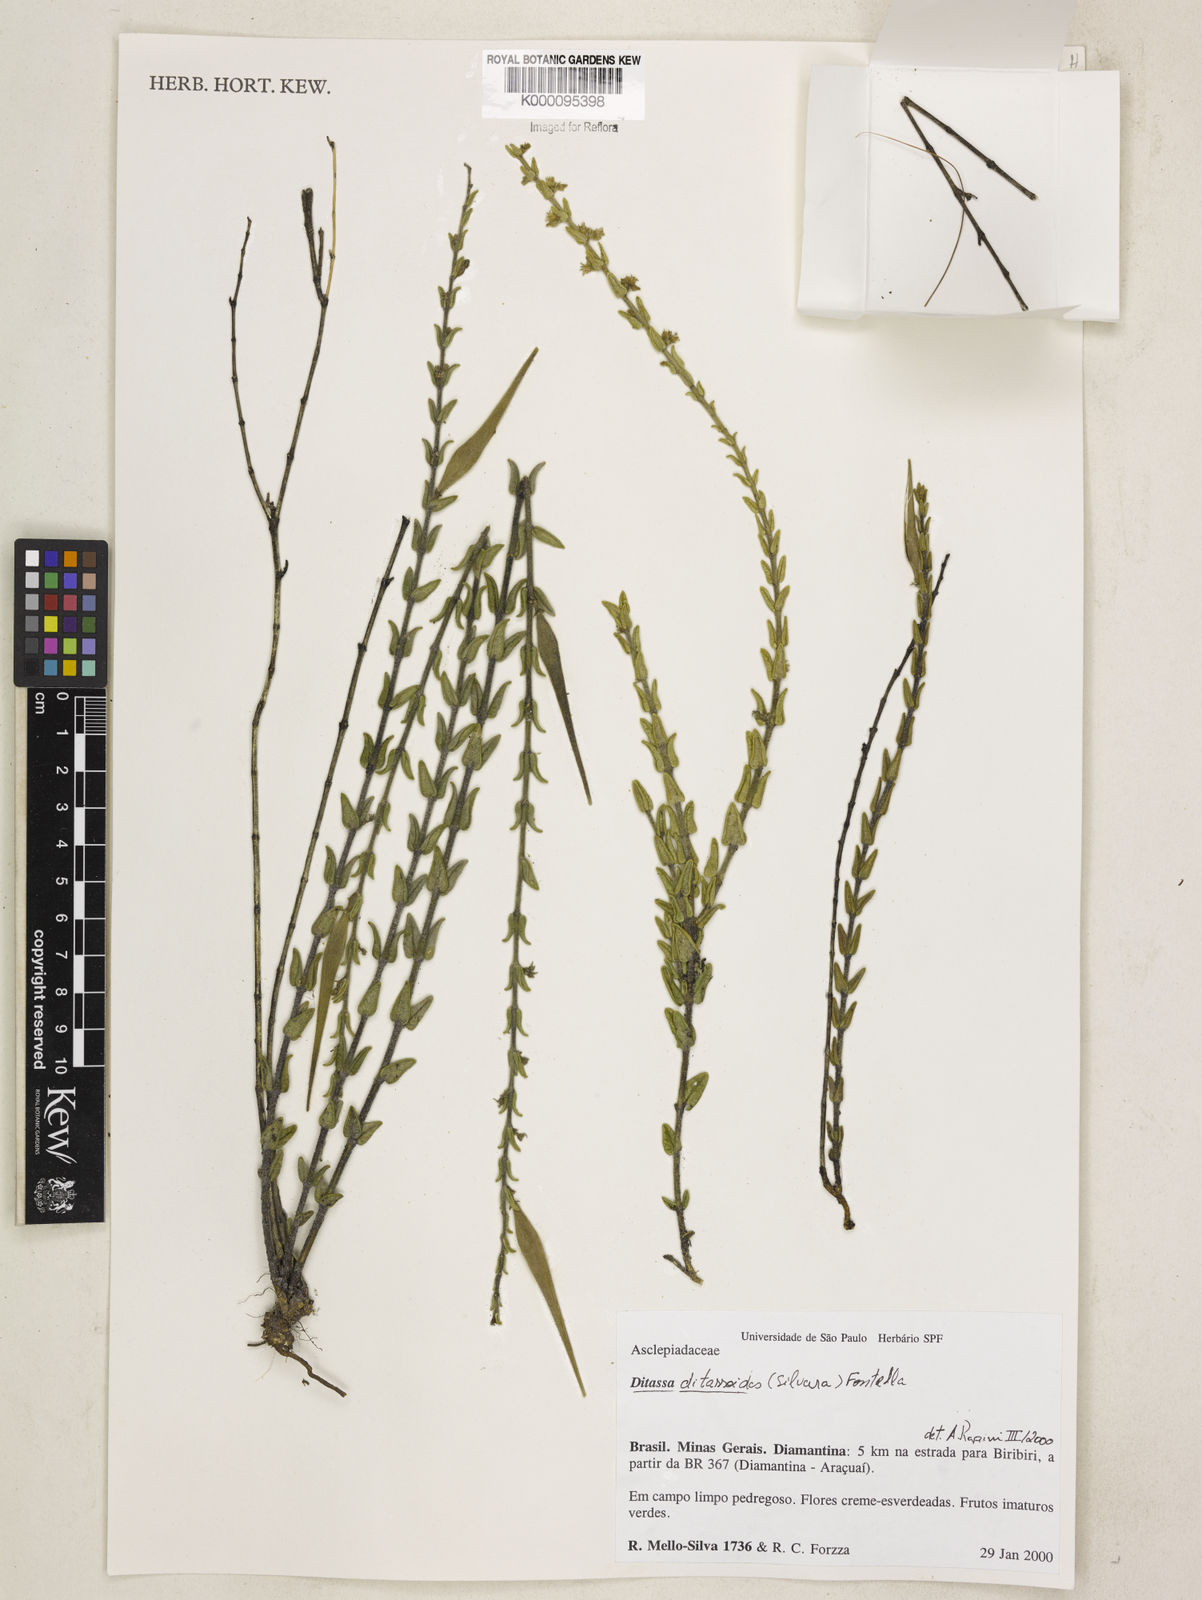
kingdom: Plantae
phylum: Tracheophyta
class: Magnoliopsida
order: Gentianales
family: Apocynaceae
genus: Minaria
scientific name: Minaria ditassoides
